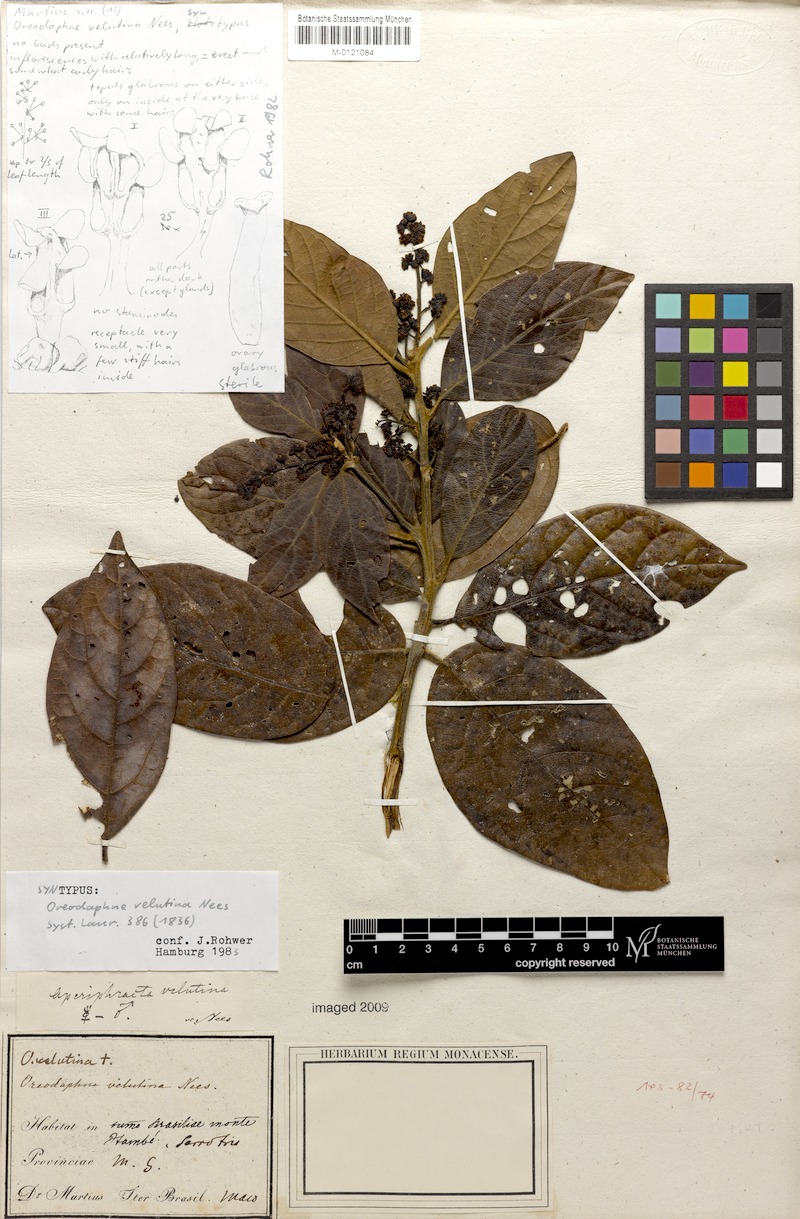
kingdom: Plantae
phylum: Tracheophyta
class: Magnoliopsida
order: Laurales
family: Lauraceae
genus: Andea
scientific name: Andea velutina
